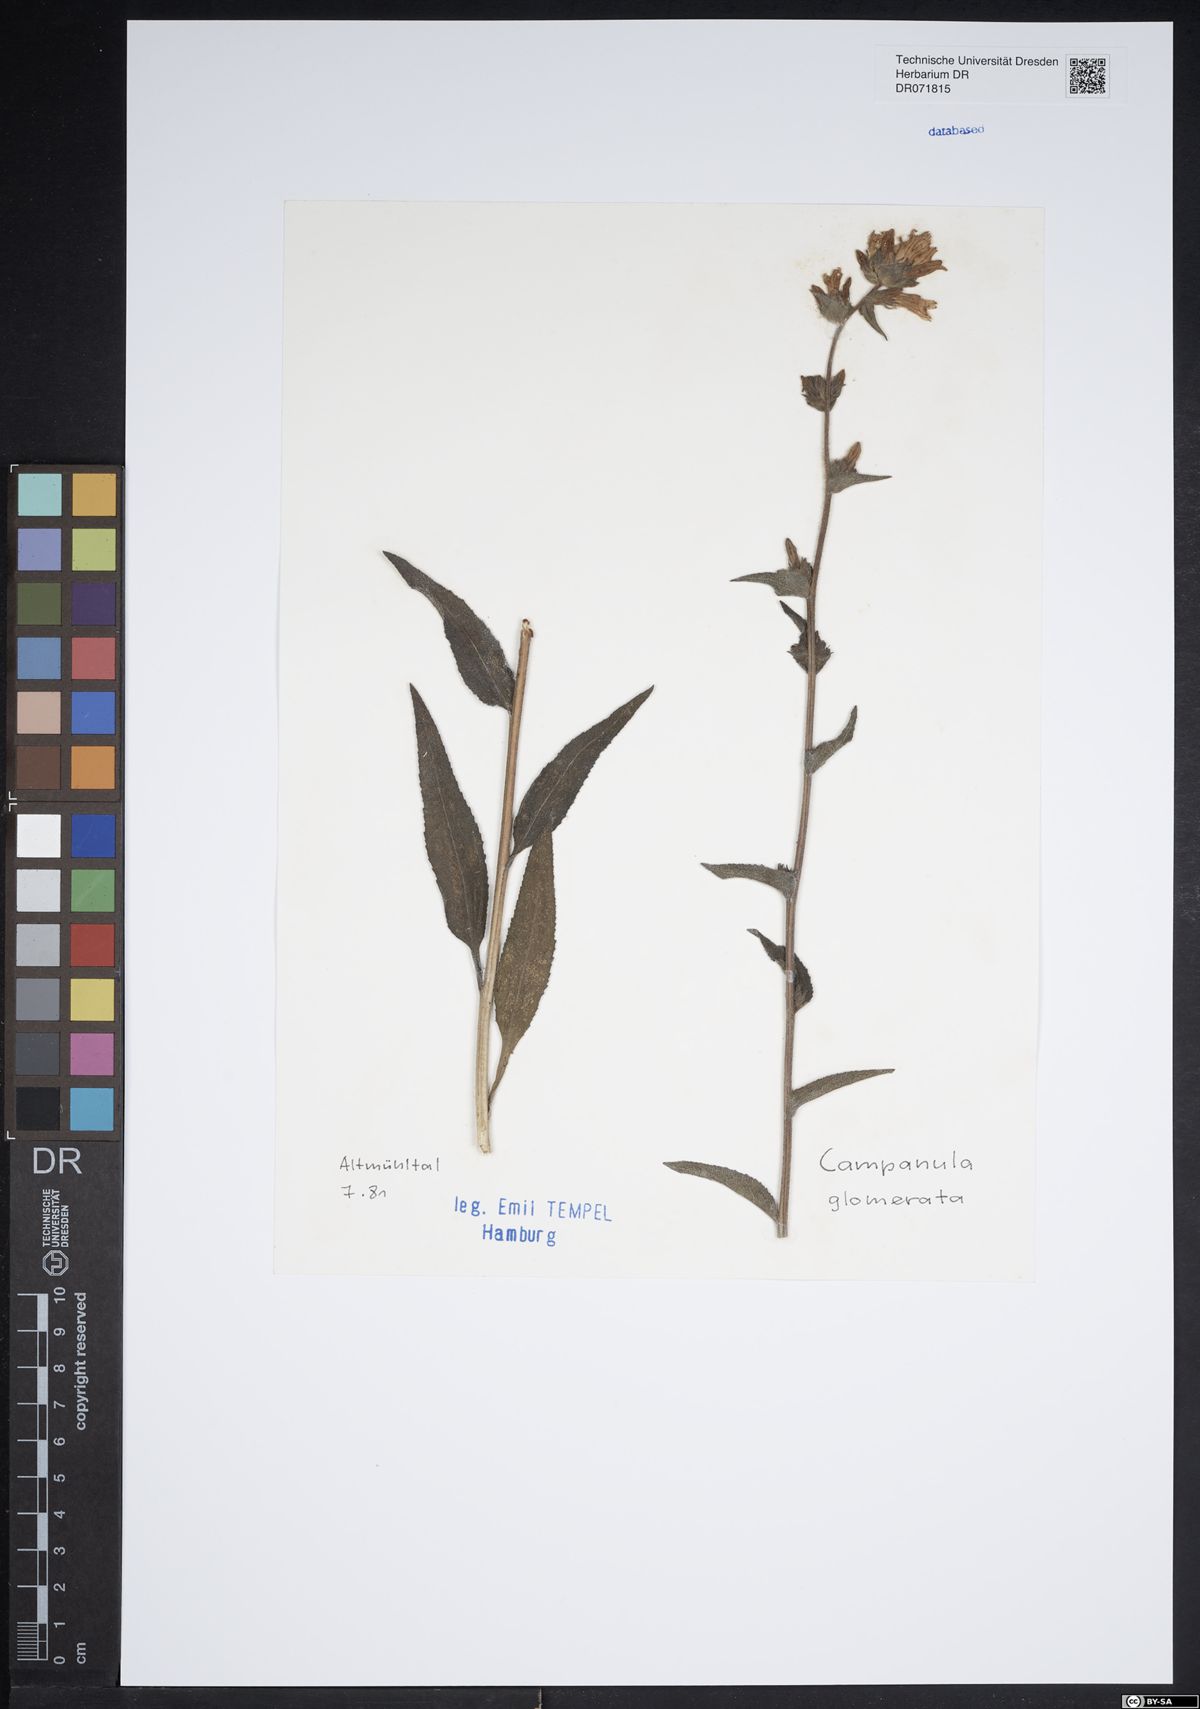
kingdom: Plantae
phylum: Tracheophyta
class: Magnoliopsida
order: Asterales
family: Campanulaceae
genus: Campanula
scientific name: Campanula glomerata
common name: Clustered bellflower
